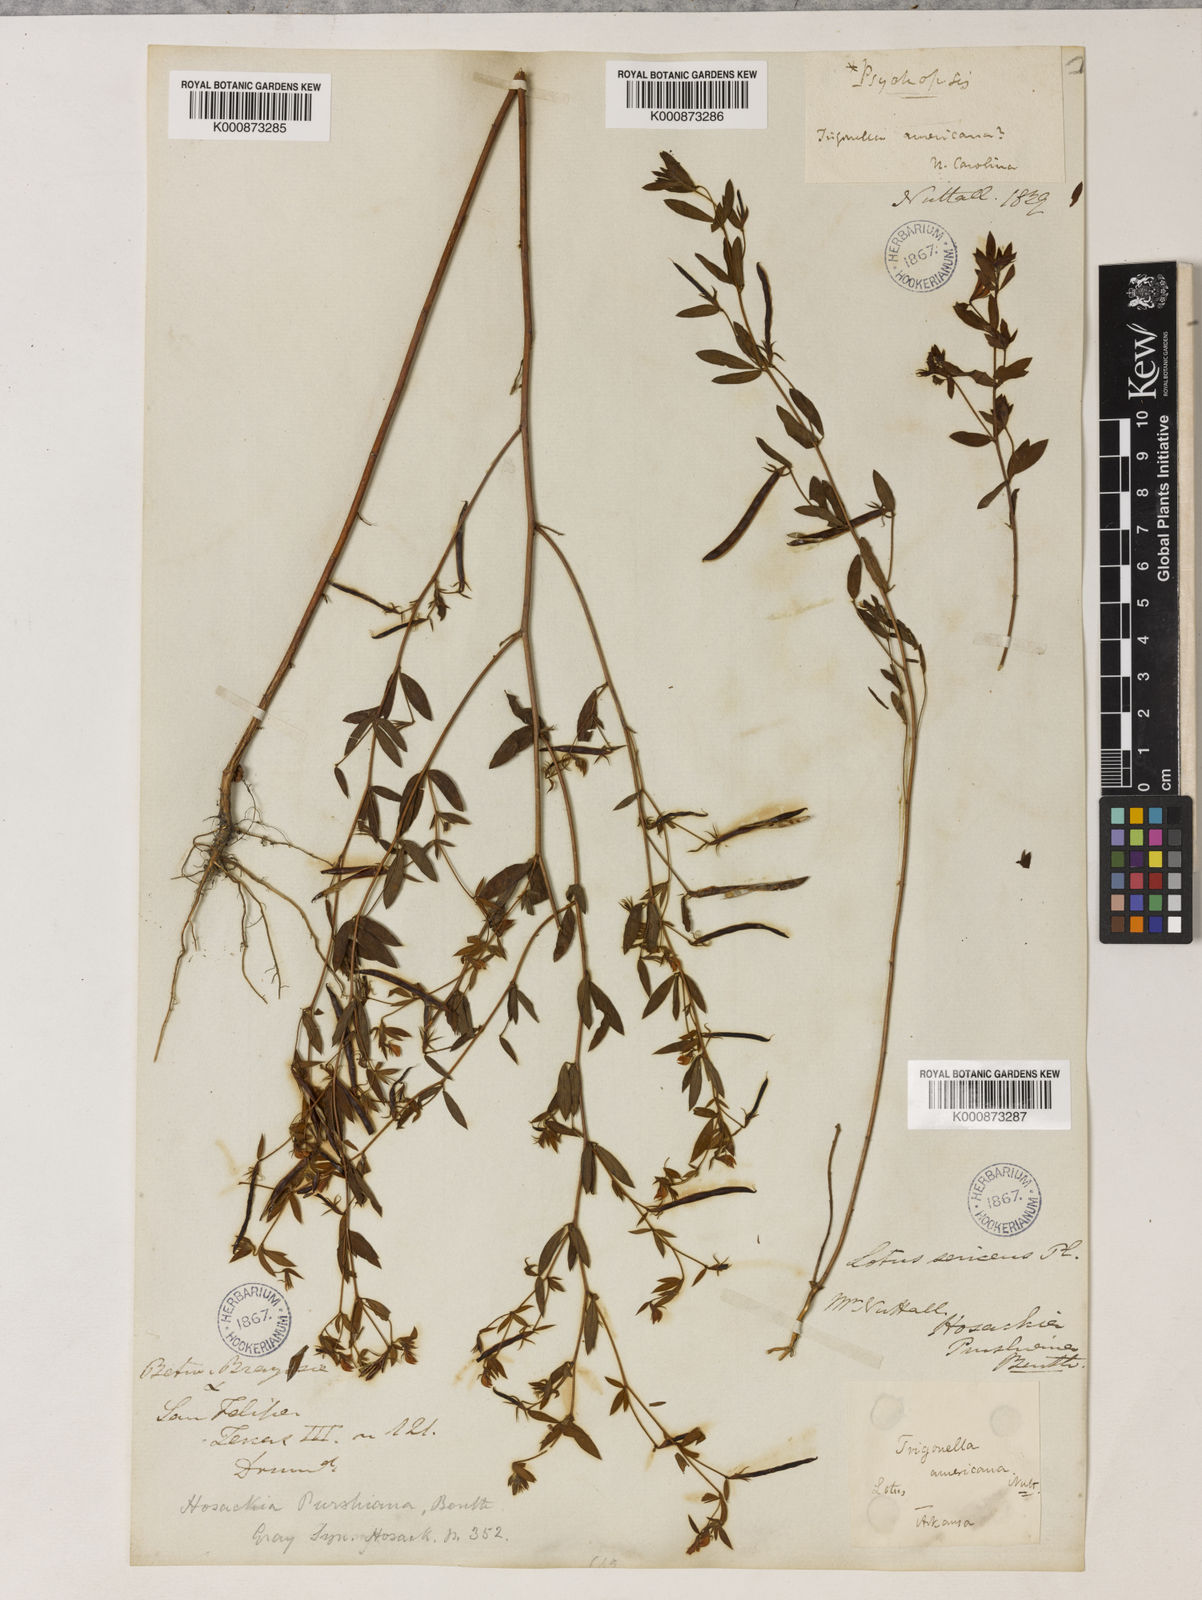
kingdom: Plantae
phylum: Tracheophyta
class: Magnoliopsida
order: Fabales
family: Fabaceae
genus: Collaea
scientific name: Collaea speciosa
